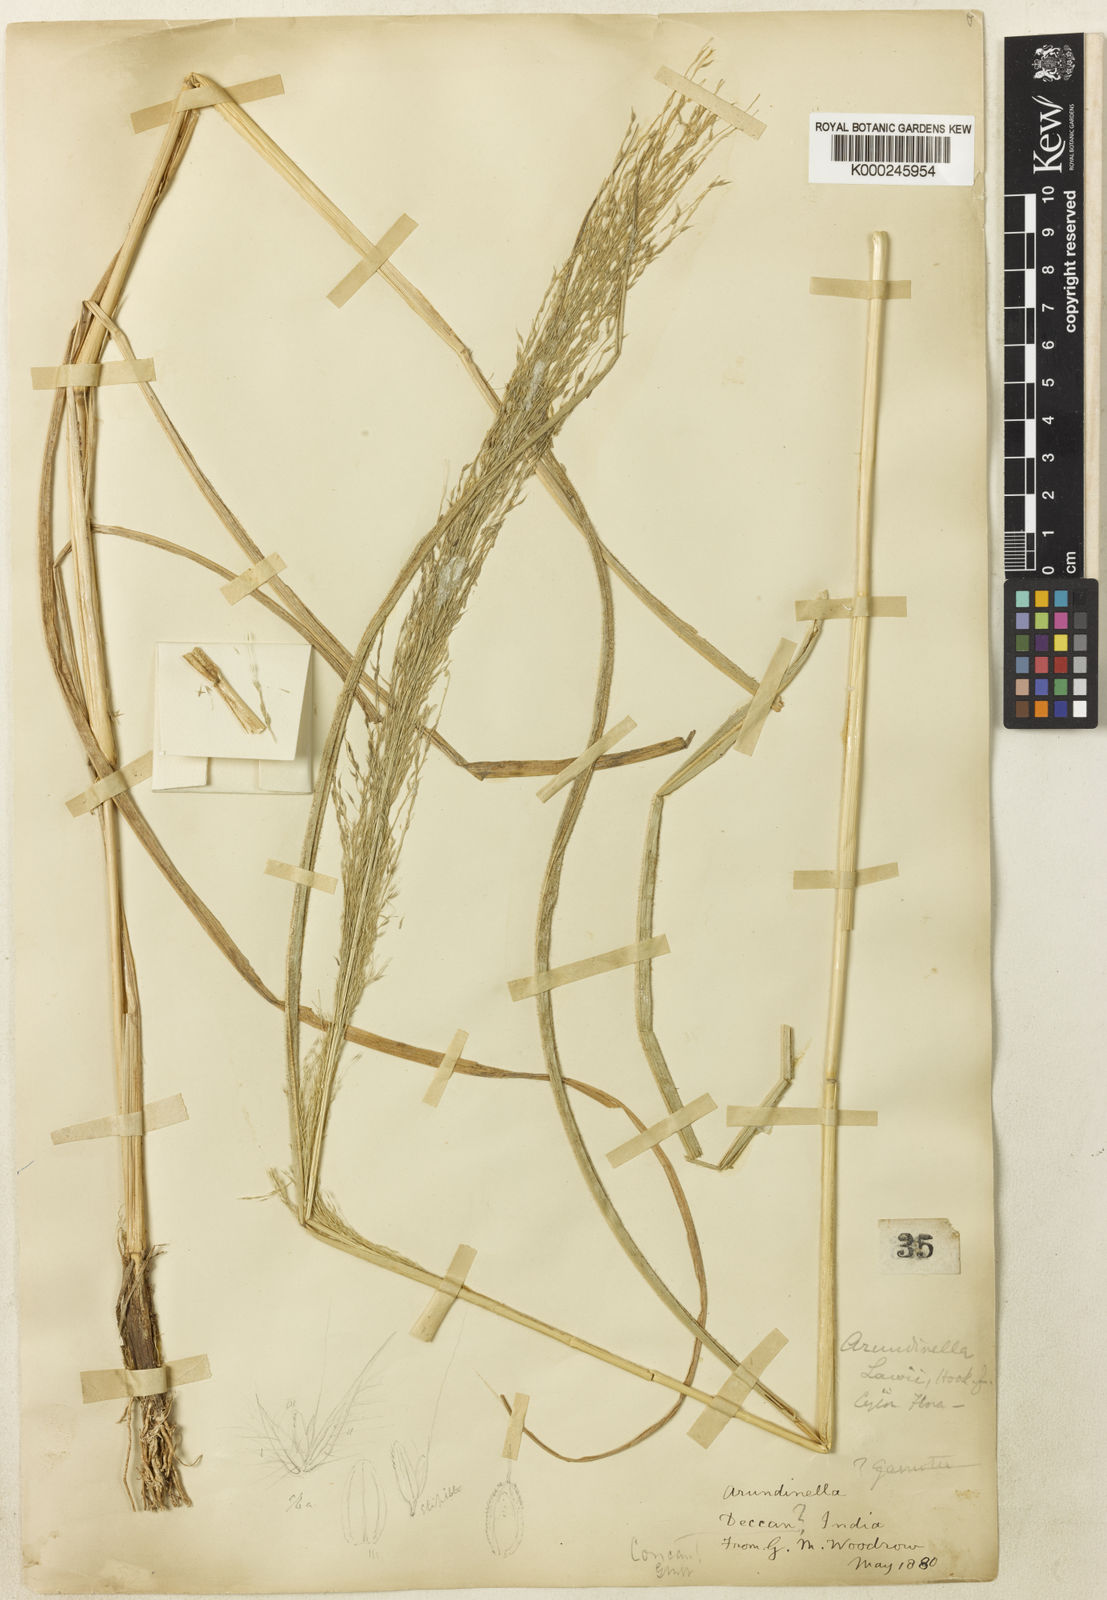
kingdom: Plantae
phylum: Tracheophyta
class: Liliopsida
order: Poales
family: Poaceae
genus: Arundinella
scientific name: Arundinella metzii
